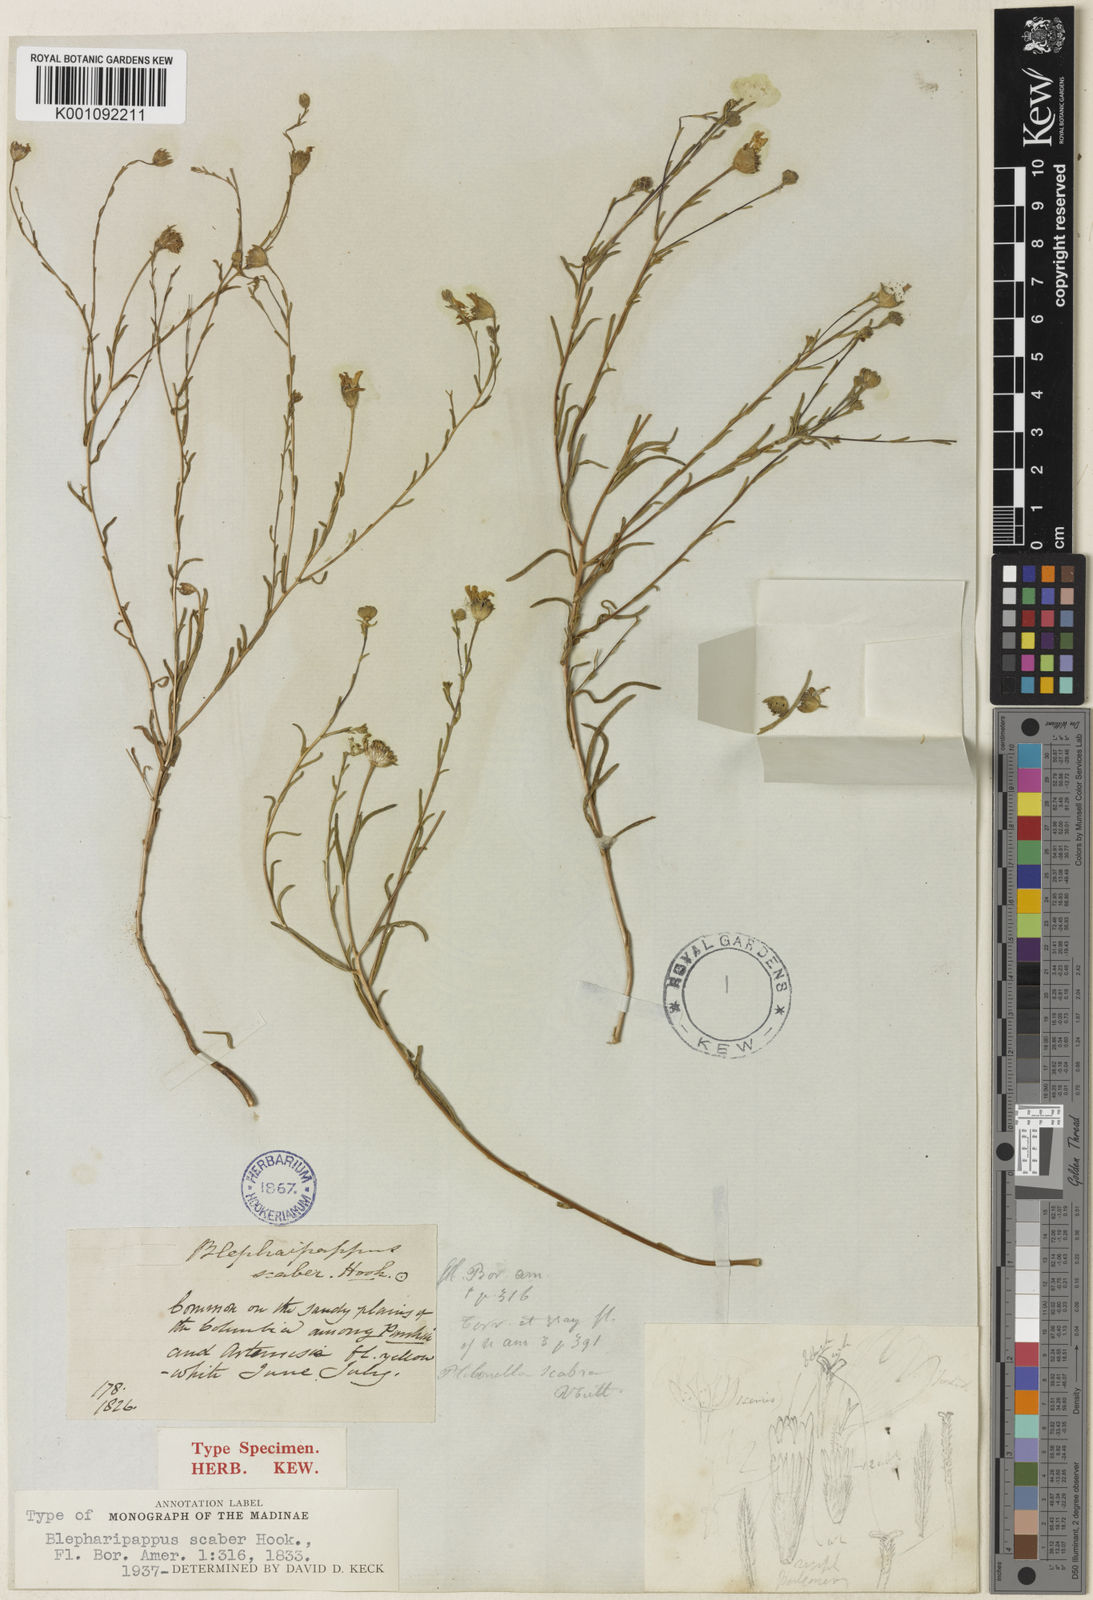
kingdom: Plantae
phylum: Tracheophyta
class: Magnoliopsida
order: Asterales
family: Asteraceae
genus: Blepharipappus
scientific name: Blepharipappus scaber
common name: Rough blepharipappus
